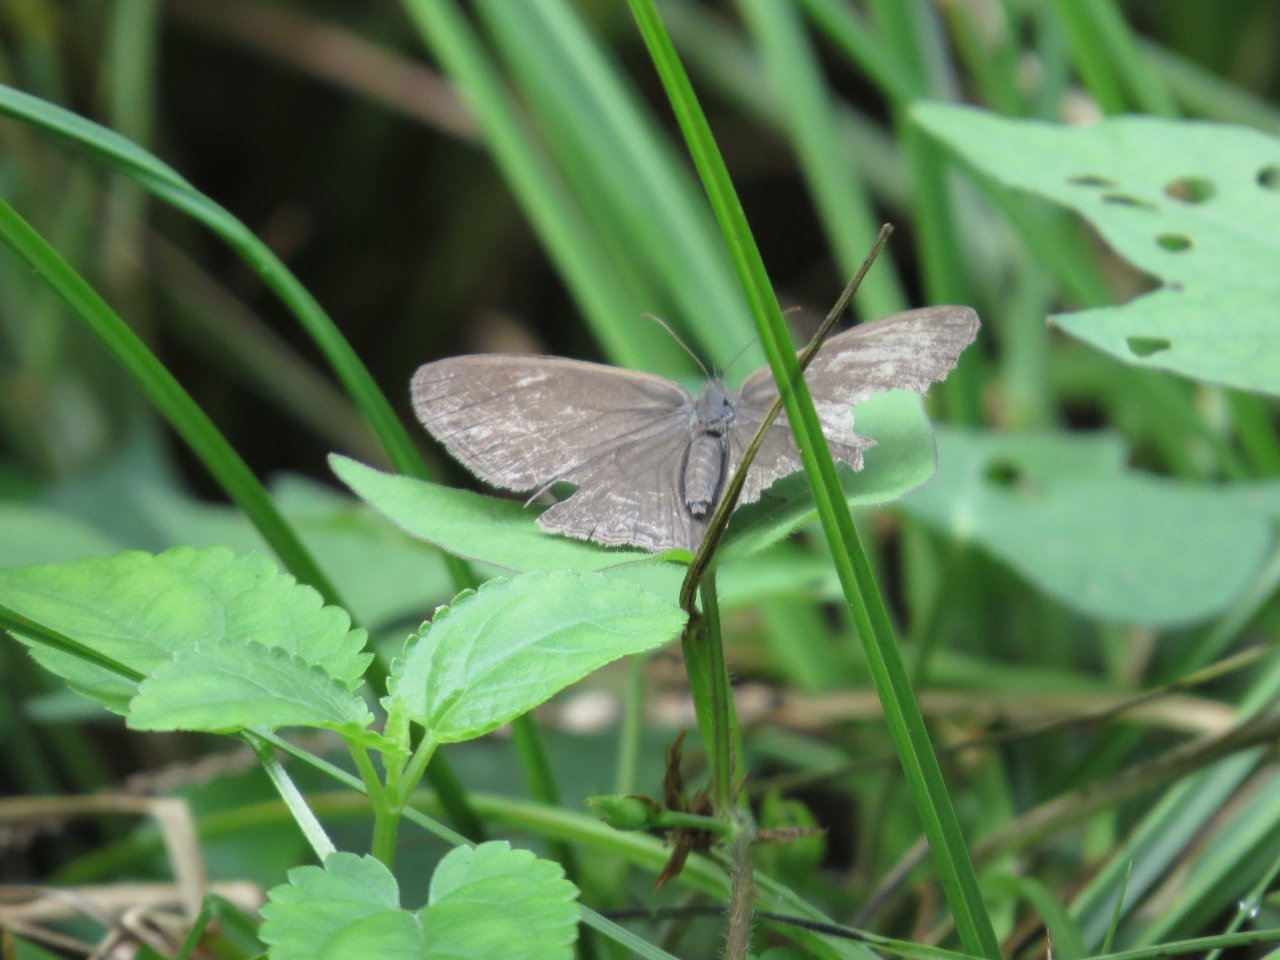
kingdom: Animalia
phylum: Arthropoda
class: Insecta
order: Lepidoptera
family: Nymphalidae
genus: Hermeuptychia
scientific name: Hermeuptychia hermes
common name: Carolina Satyr
